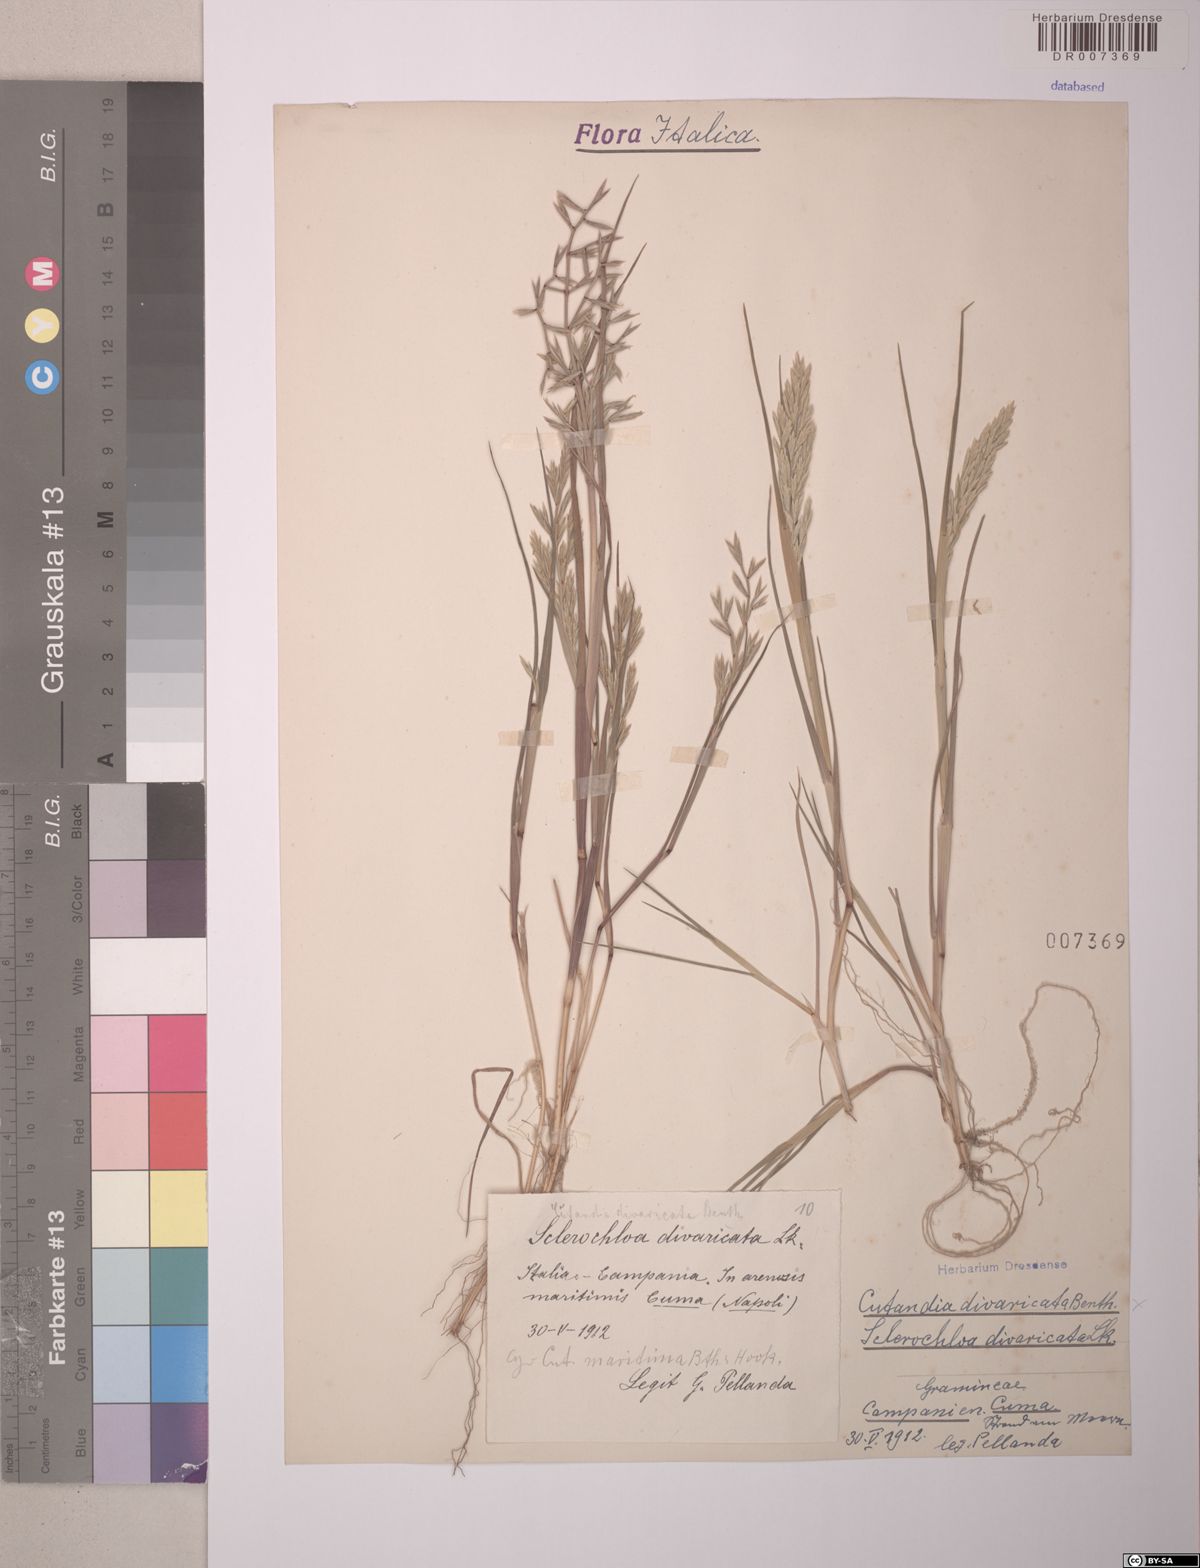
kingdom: Plantae
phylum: Tracheophyta
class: Liliopsida
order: Poales
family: Poaceae
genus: Cutandia
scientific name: Cutandia divaricata
